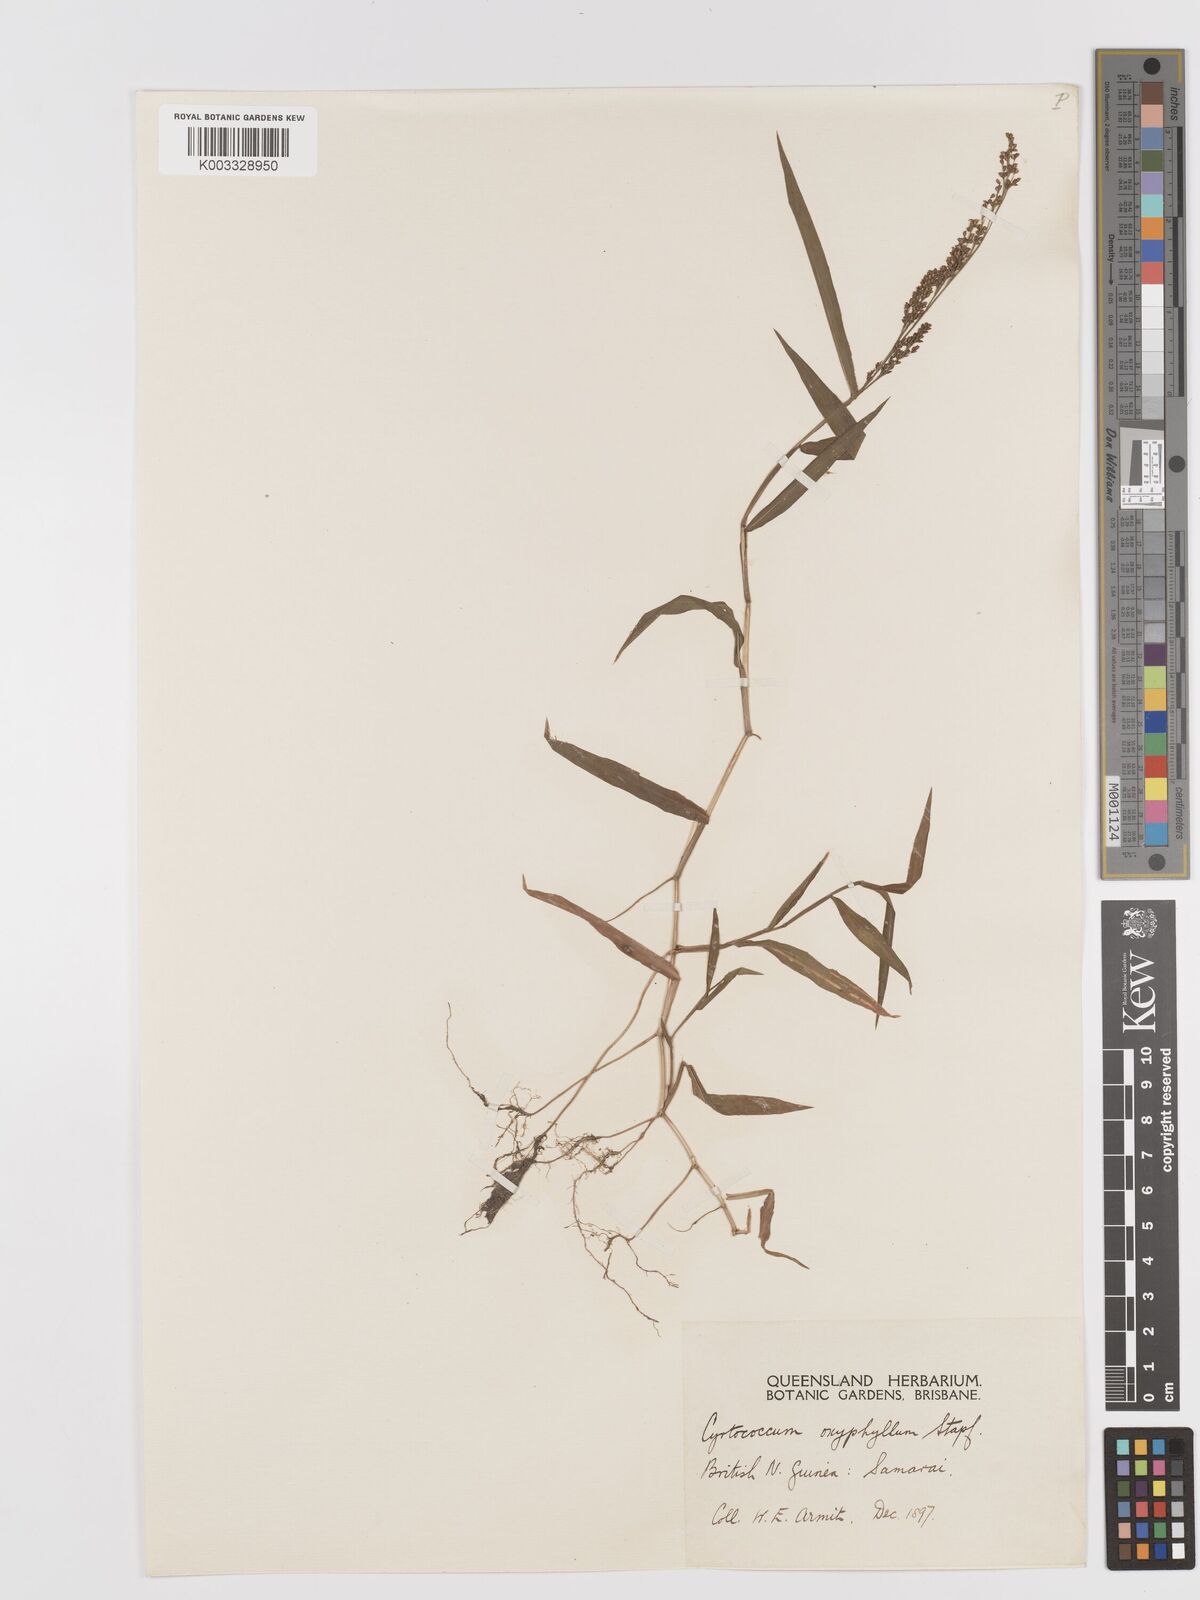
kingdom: Plantae
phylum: Tracheophyta
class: Liliopsida
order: Poales
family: Poaceae
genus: Cyrtococcum
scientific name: Cyrtococcum oxyphyllum
